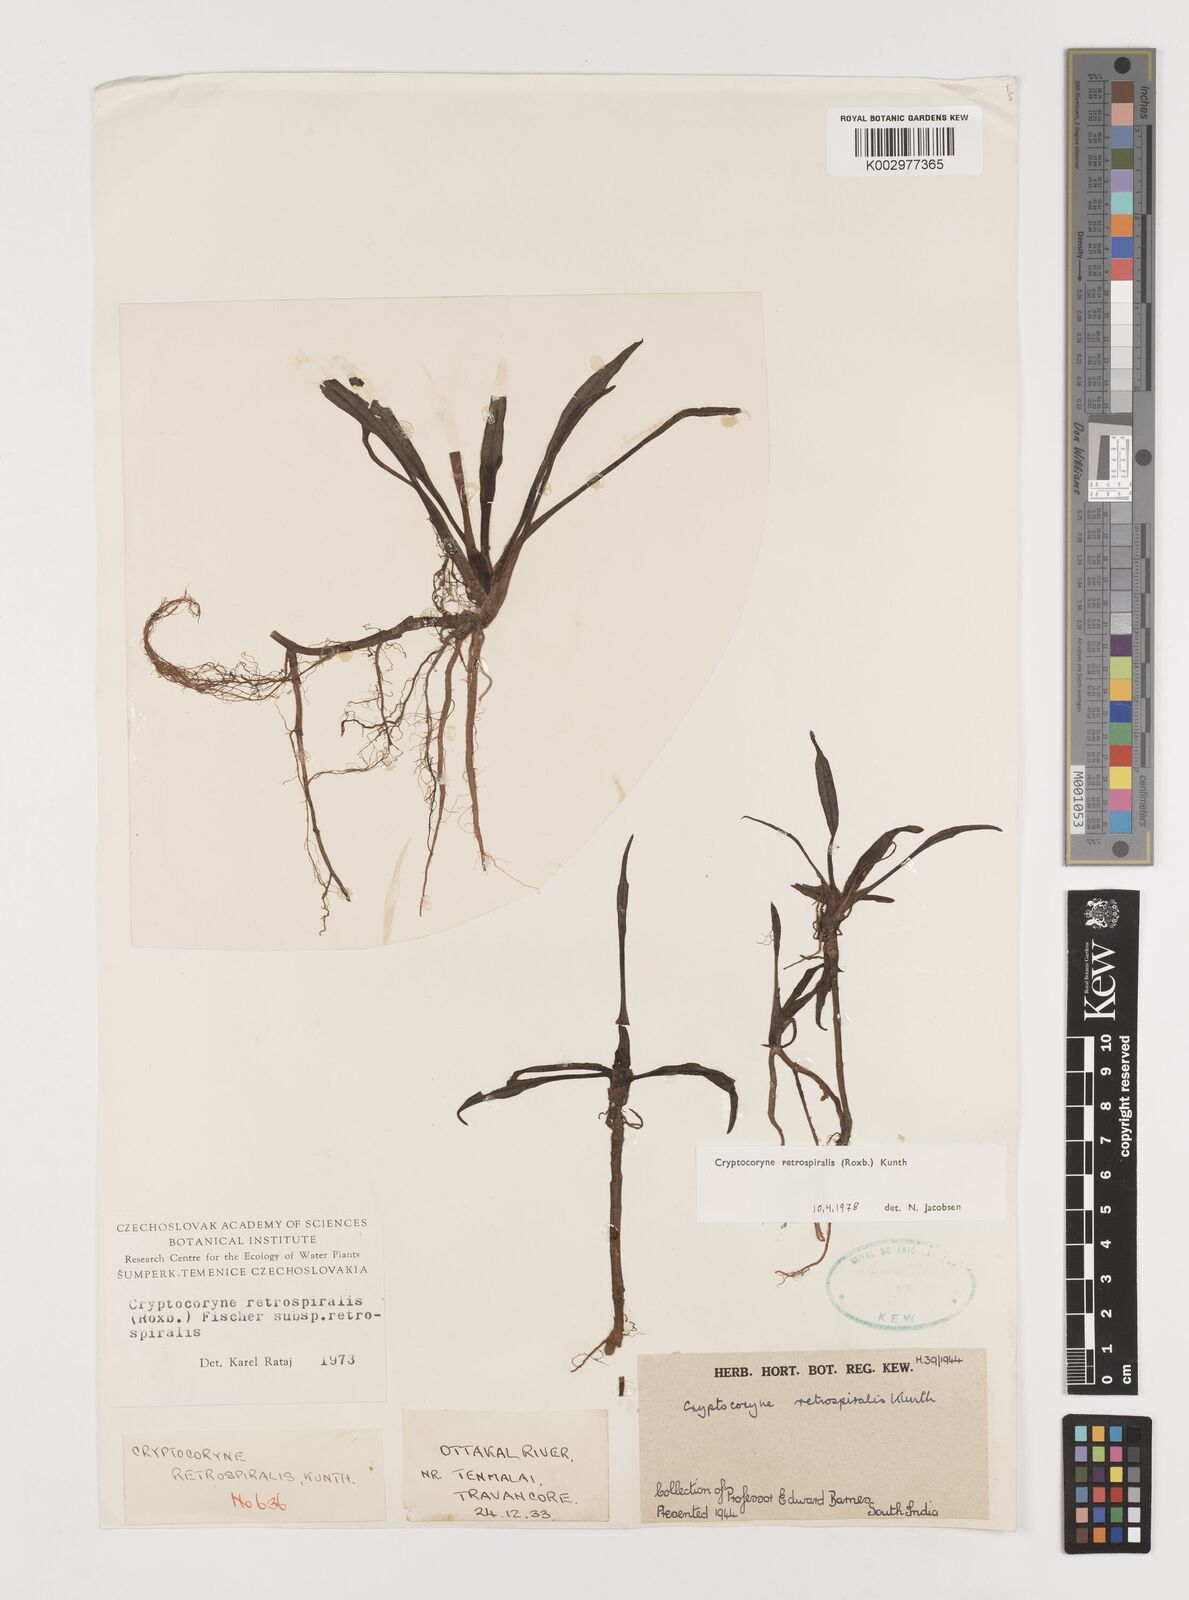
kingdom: Plantae
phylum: Tracheophyta
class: Liliopsida
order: Alismatales
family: Araceae
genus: Cryptocoryne
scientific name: Cryptocoryne retrospiralis
